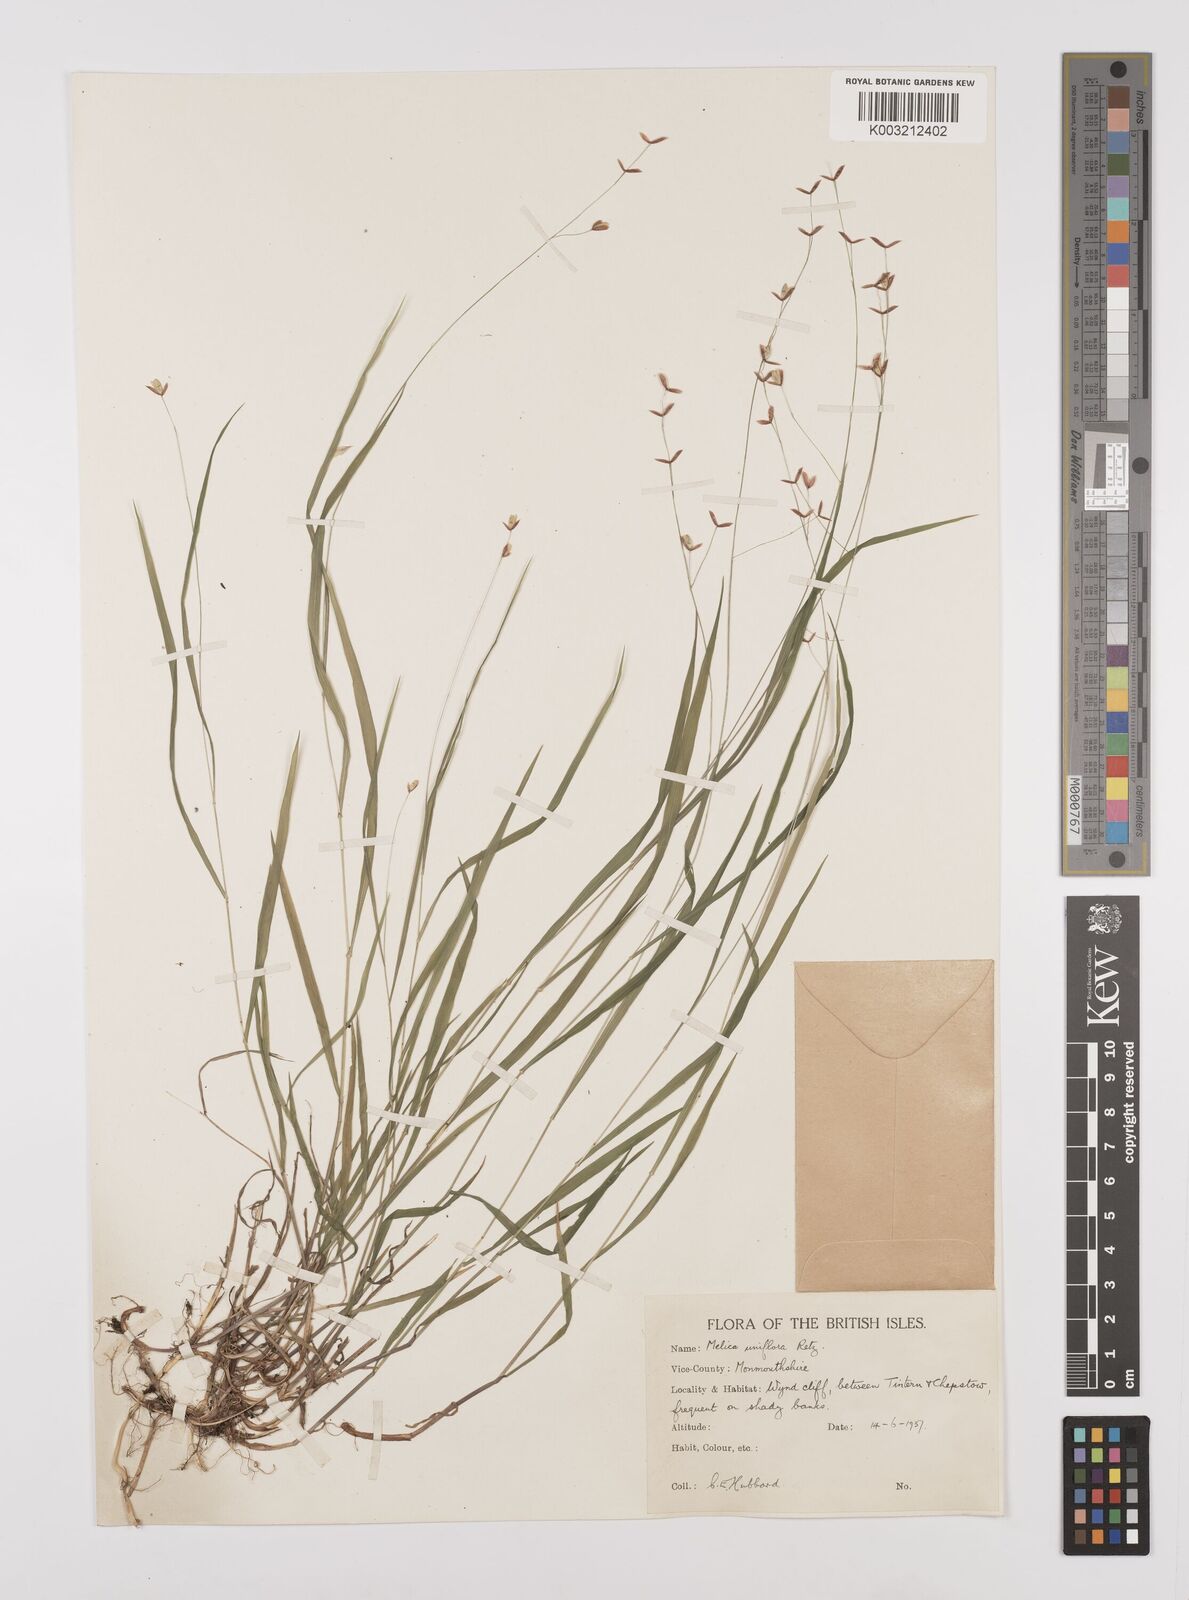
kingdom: Plantae
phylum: Tracheophyta
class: Liliopsida
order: Poales
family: Poaceae
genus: Melica
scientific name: Melica uniflora
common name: Wood melick
